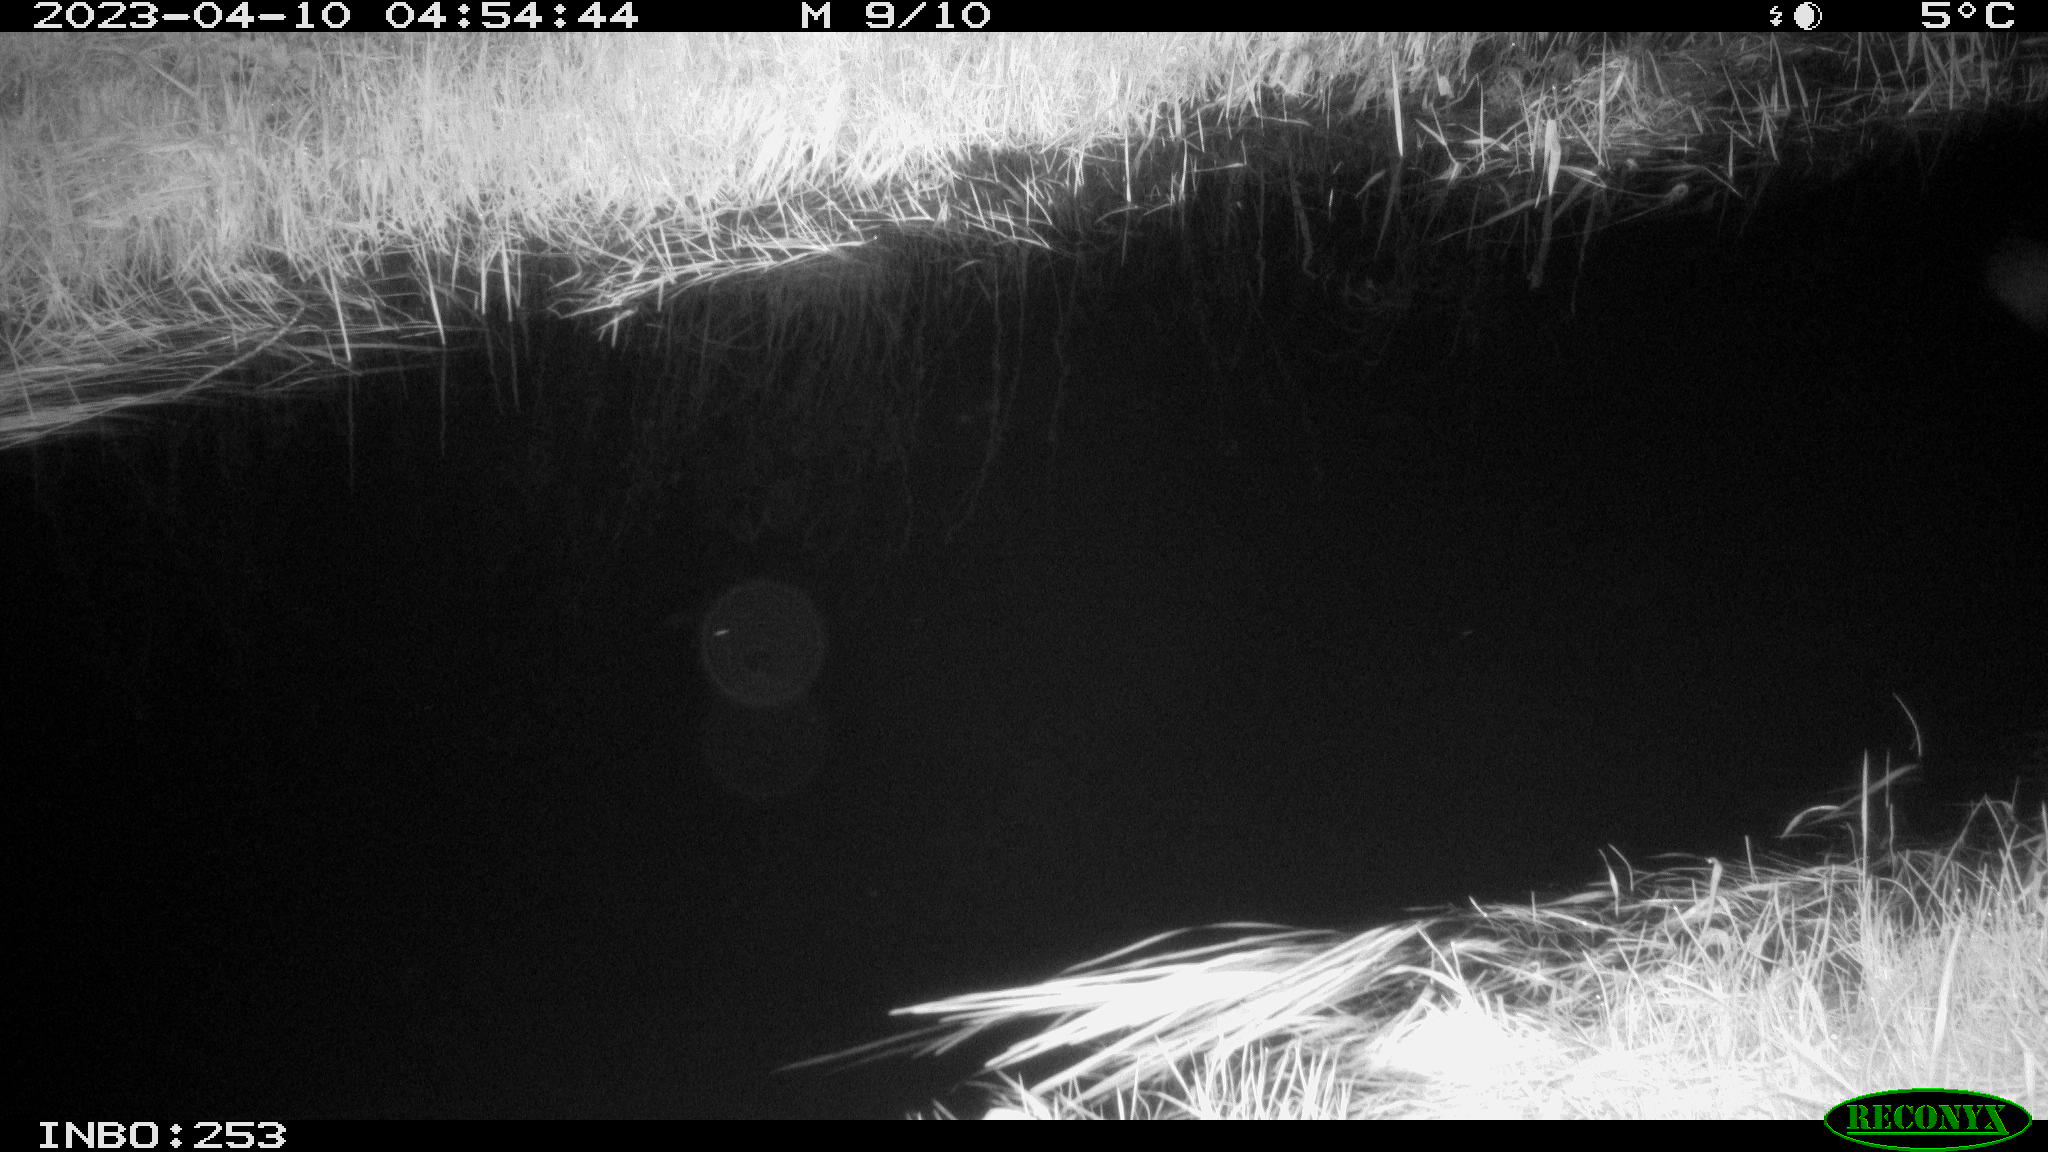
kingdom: Animalia
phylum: Chordata
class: Mammalia
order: Rodentia
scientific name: Rodentia
